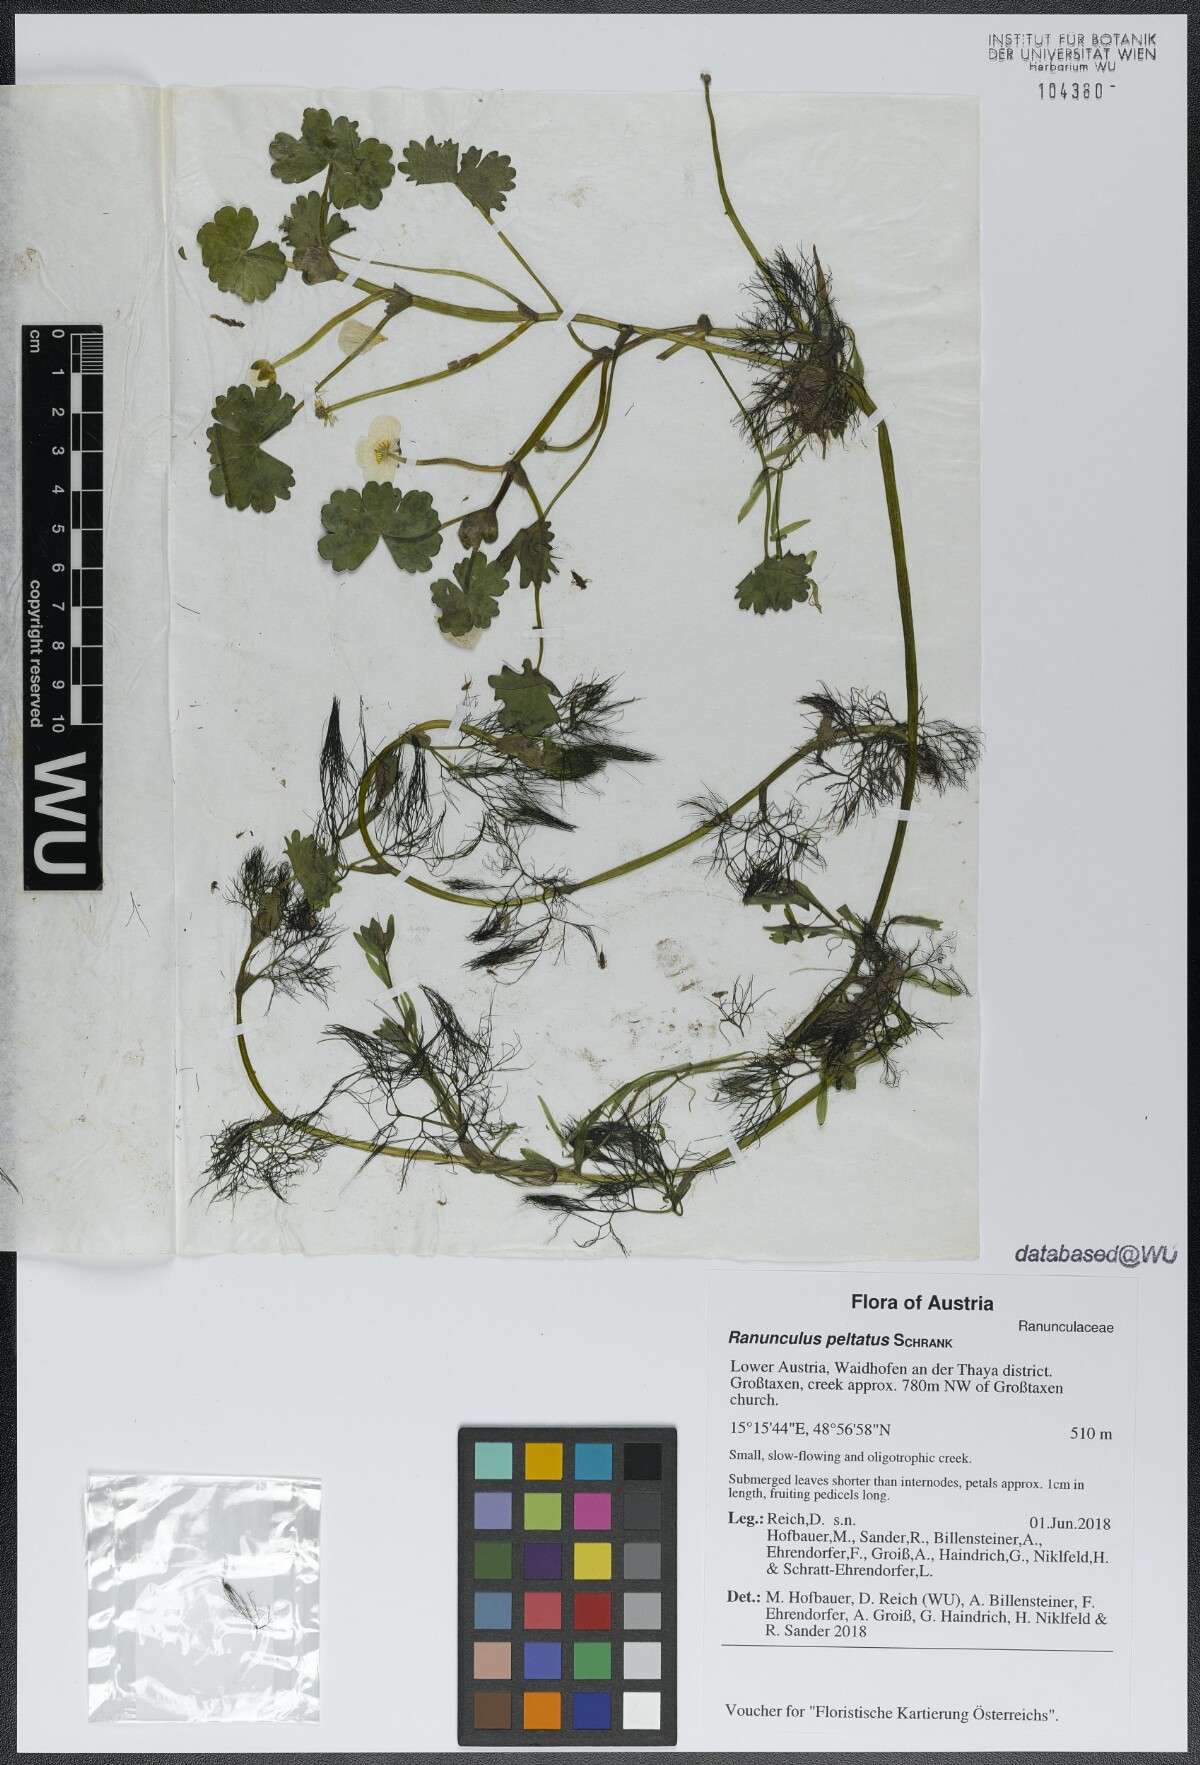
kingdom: Plantae
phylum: Tracheophyta
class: Magnoliopsida
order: Ranunculales
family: Ranunculaceae
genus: Ranunculus
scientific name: Ranunculus peltatus
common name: Pond water-crowfoot
